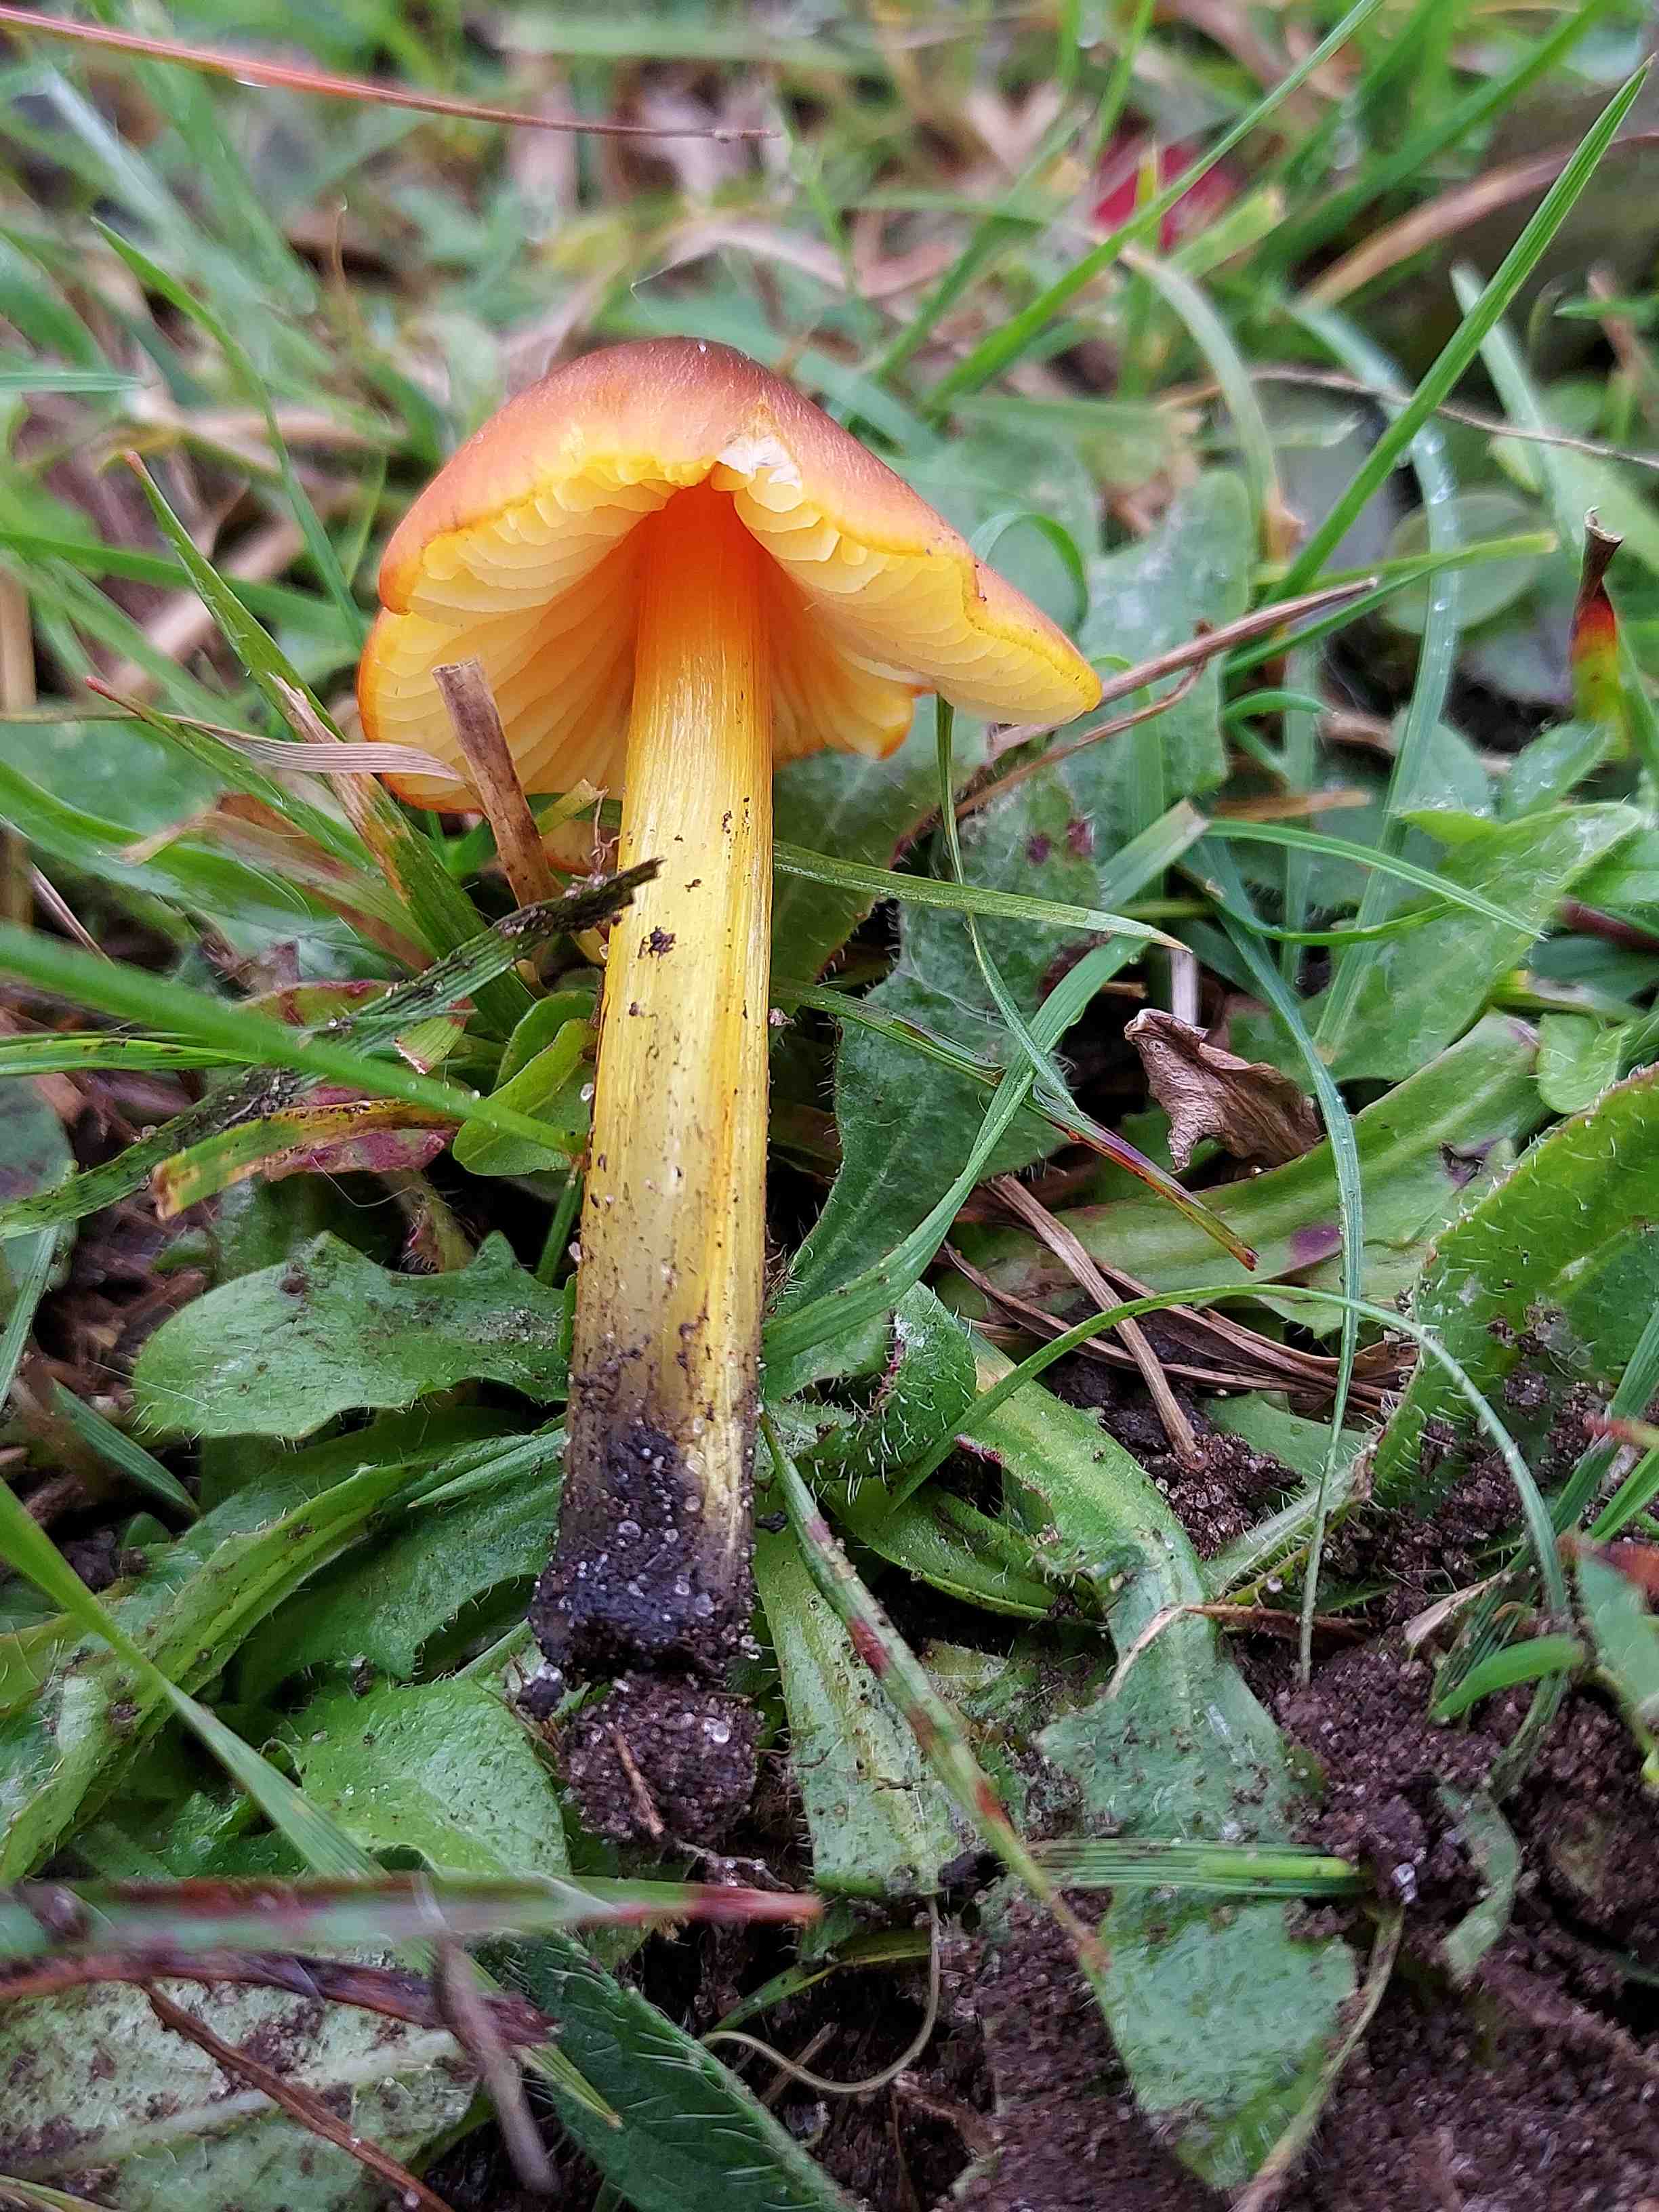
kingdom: Fungi
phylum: Basidiomycota
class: Agaricomycetes
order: Agaricales
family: Hygrophoraceae
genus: Hygrocybe
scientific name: Hygrocybe conica
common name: kegle-vokshat
